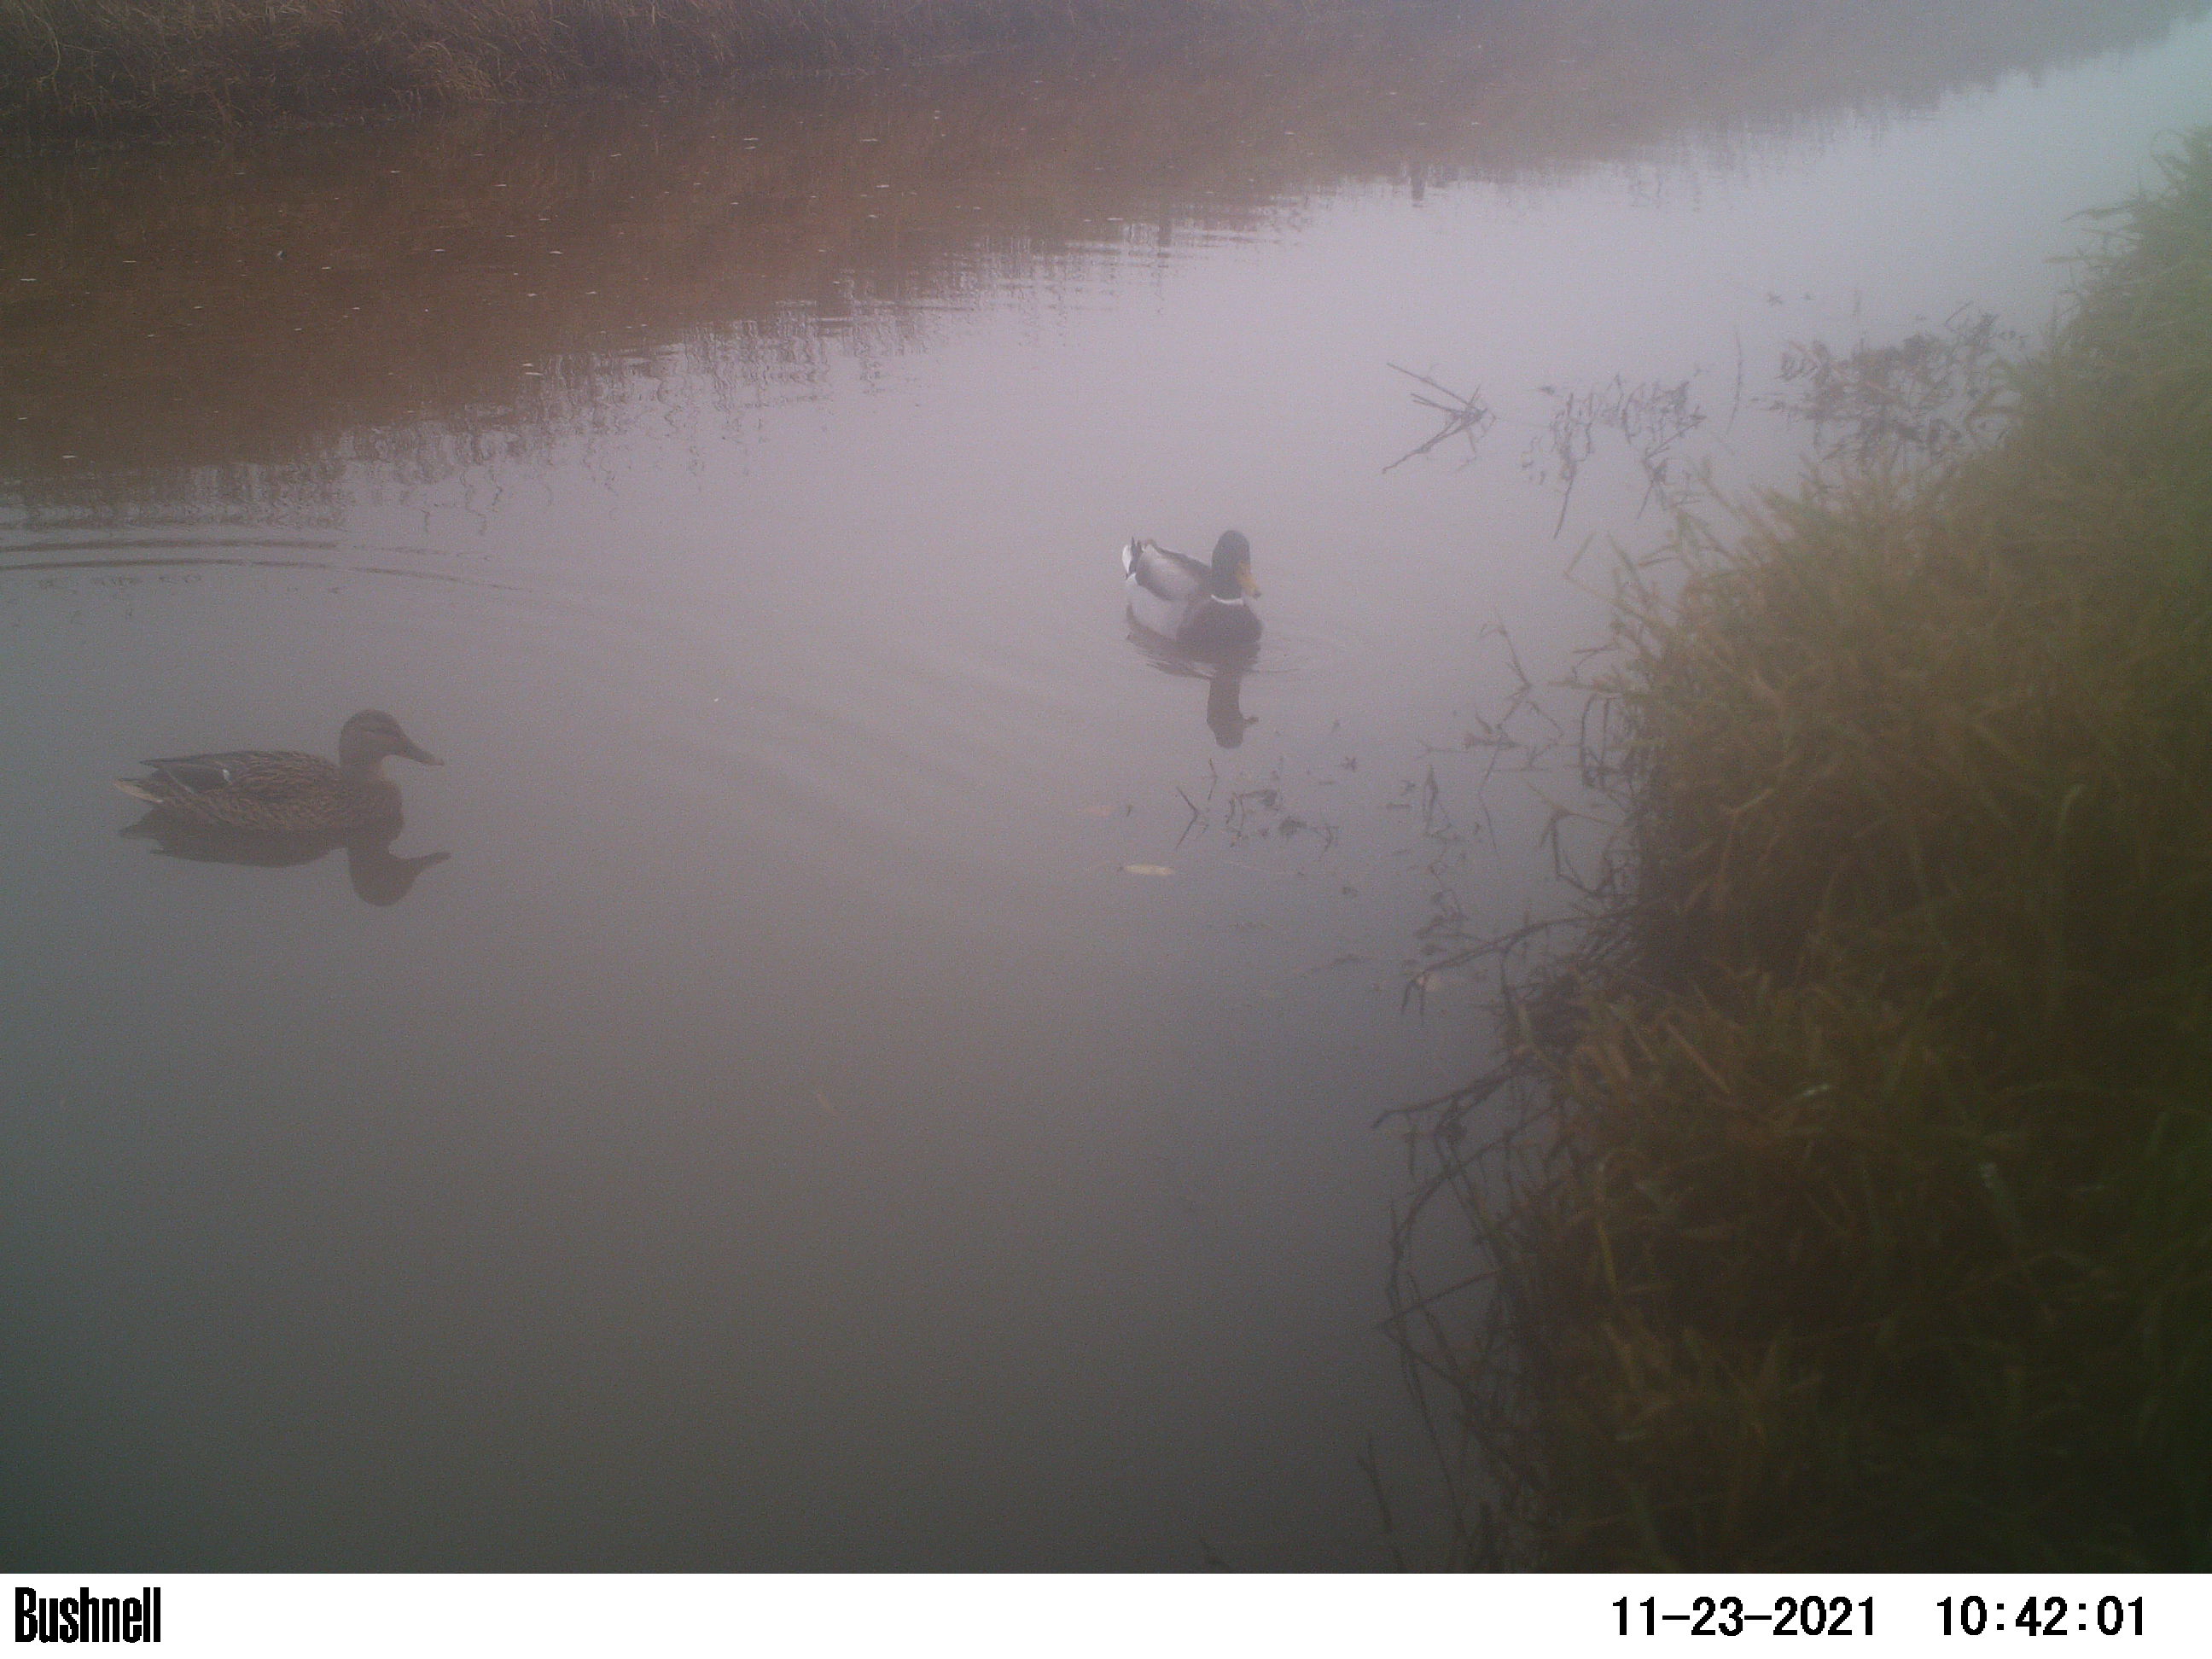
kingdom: Animalia
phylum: Chordata
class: Aves
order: Anseriformes
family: Anatidae
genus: Anas
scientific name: Anas
